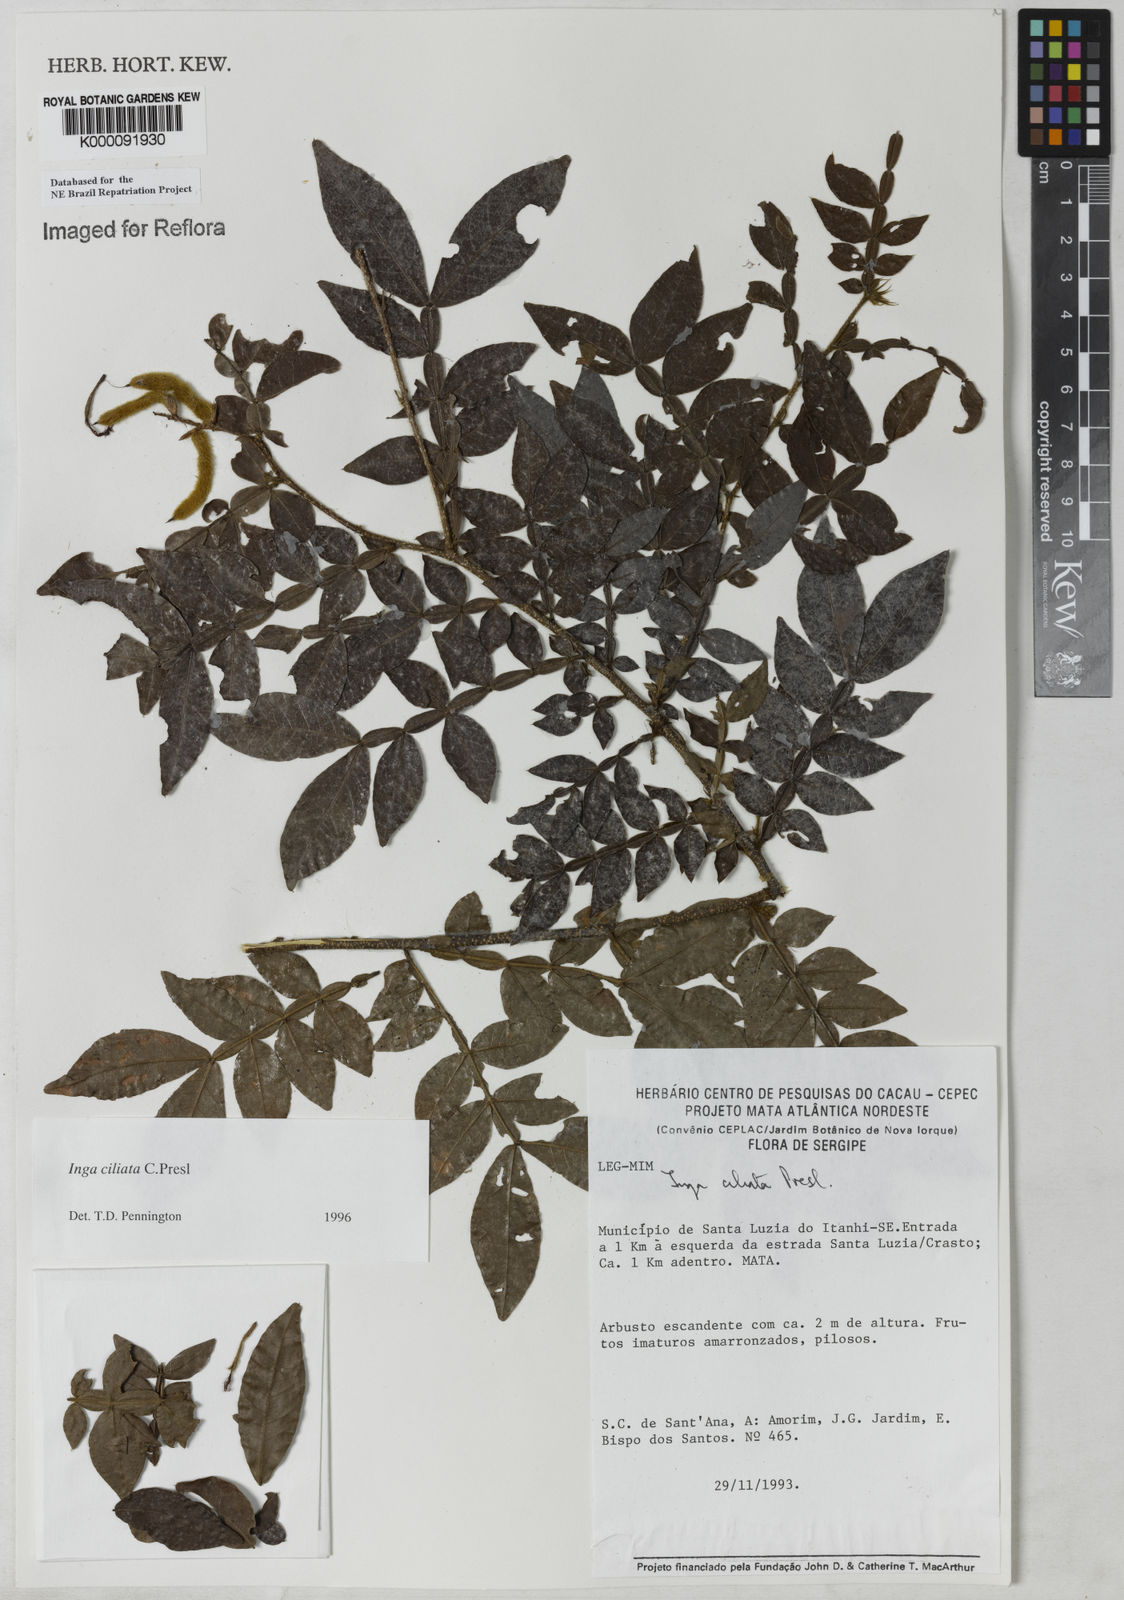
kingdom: Plantae
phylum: Tracheophyta
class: Magnoliopsida
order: Fabales
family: Fabaceae
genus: Inga
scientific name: Inga ciliata
